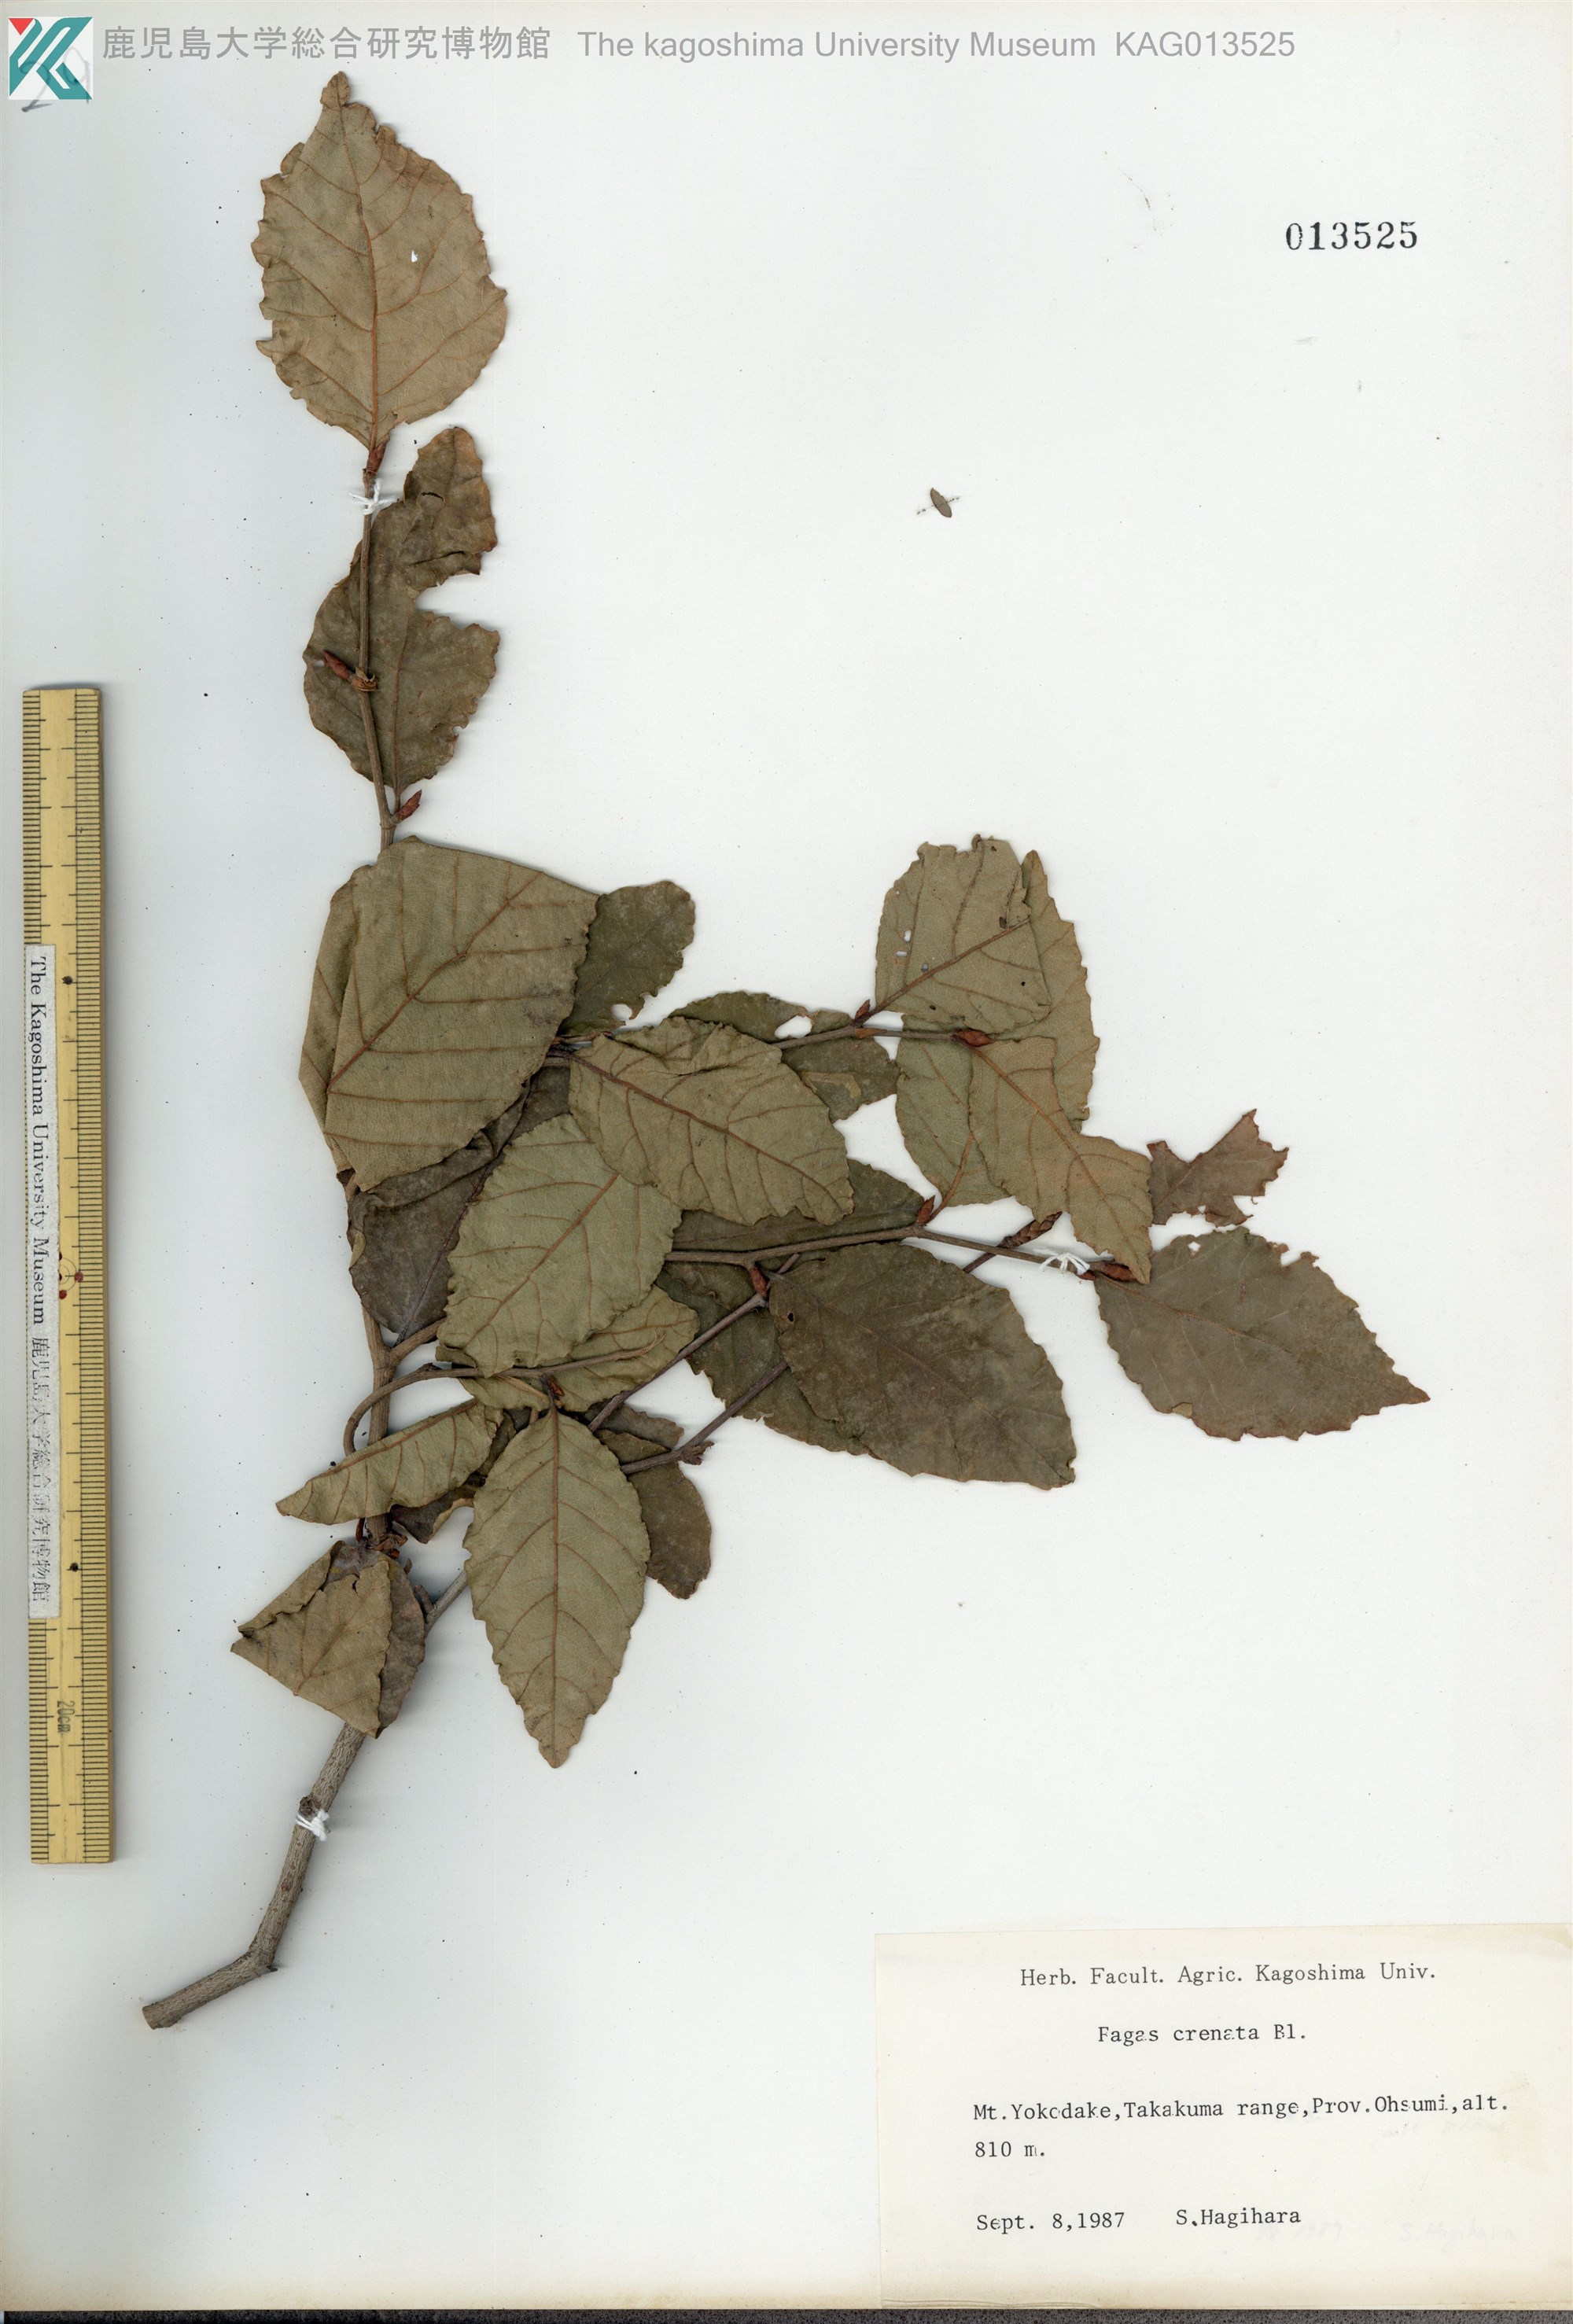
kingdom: Plantae
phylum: Tracheophyta
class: Magnoliopsida
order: Fagales
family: Fagaceae
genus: Fagus
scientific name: Fagus crenata
